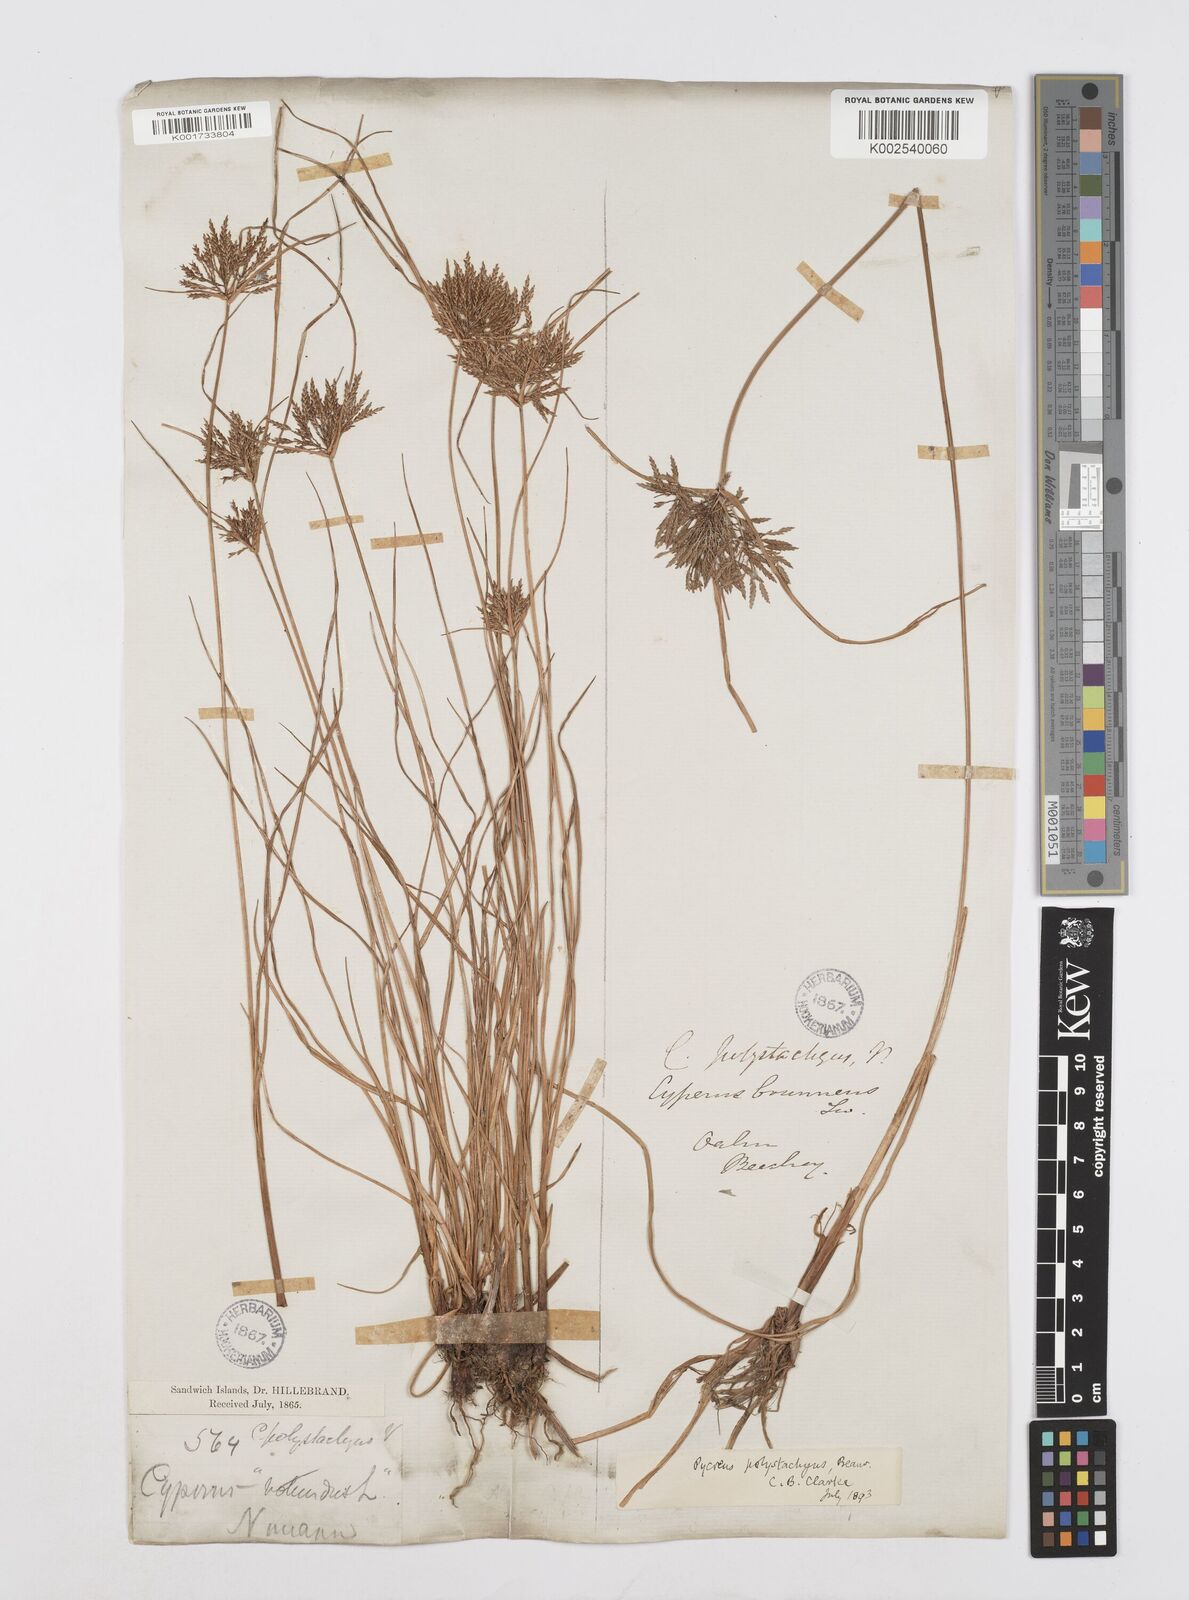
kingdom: Plantae
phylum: Tracheophyta
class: Liliopsida
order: Poales
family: Cyperaceae
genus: Cyperus
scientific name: Cyperus polystachyos
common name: Bunchy flat sedge
